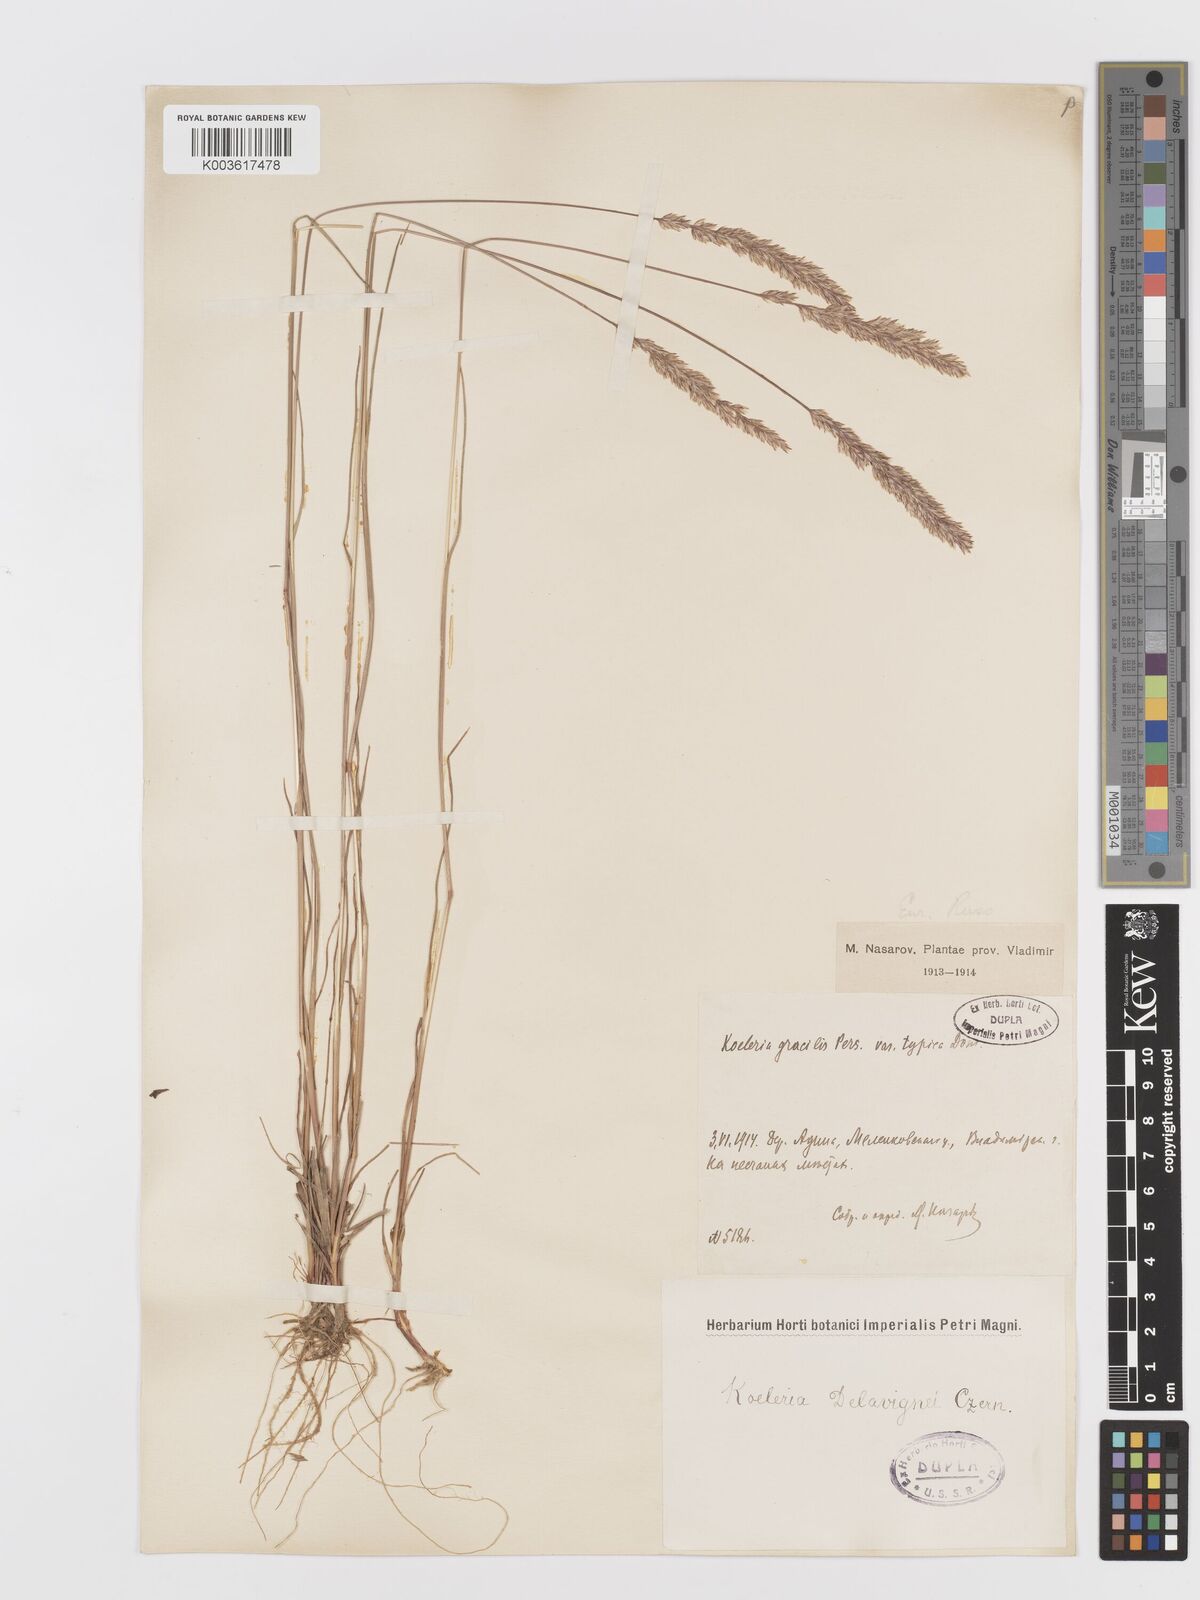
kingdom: Plantae
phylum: Tracheophyta
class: Liliopsida
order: Poales
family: Poaceae
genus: Koeleria
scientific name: Koeleria delavignei
